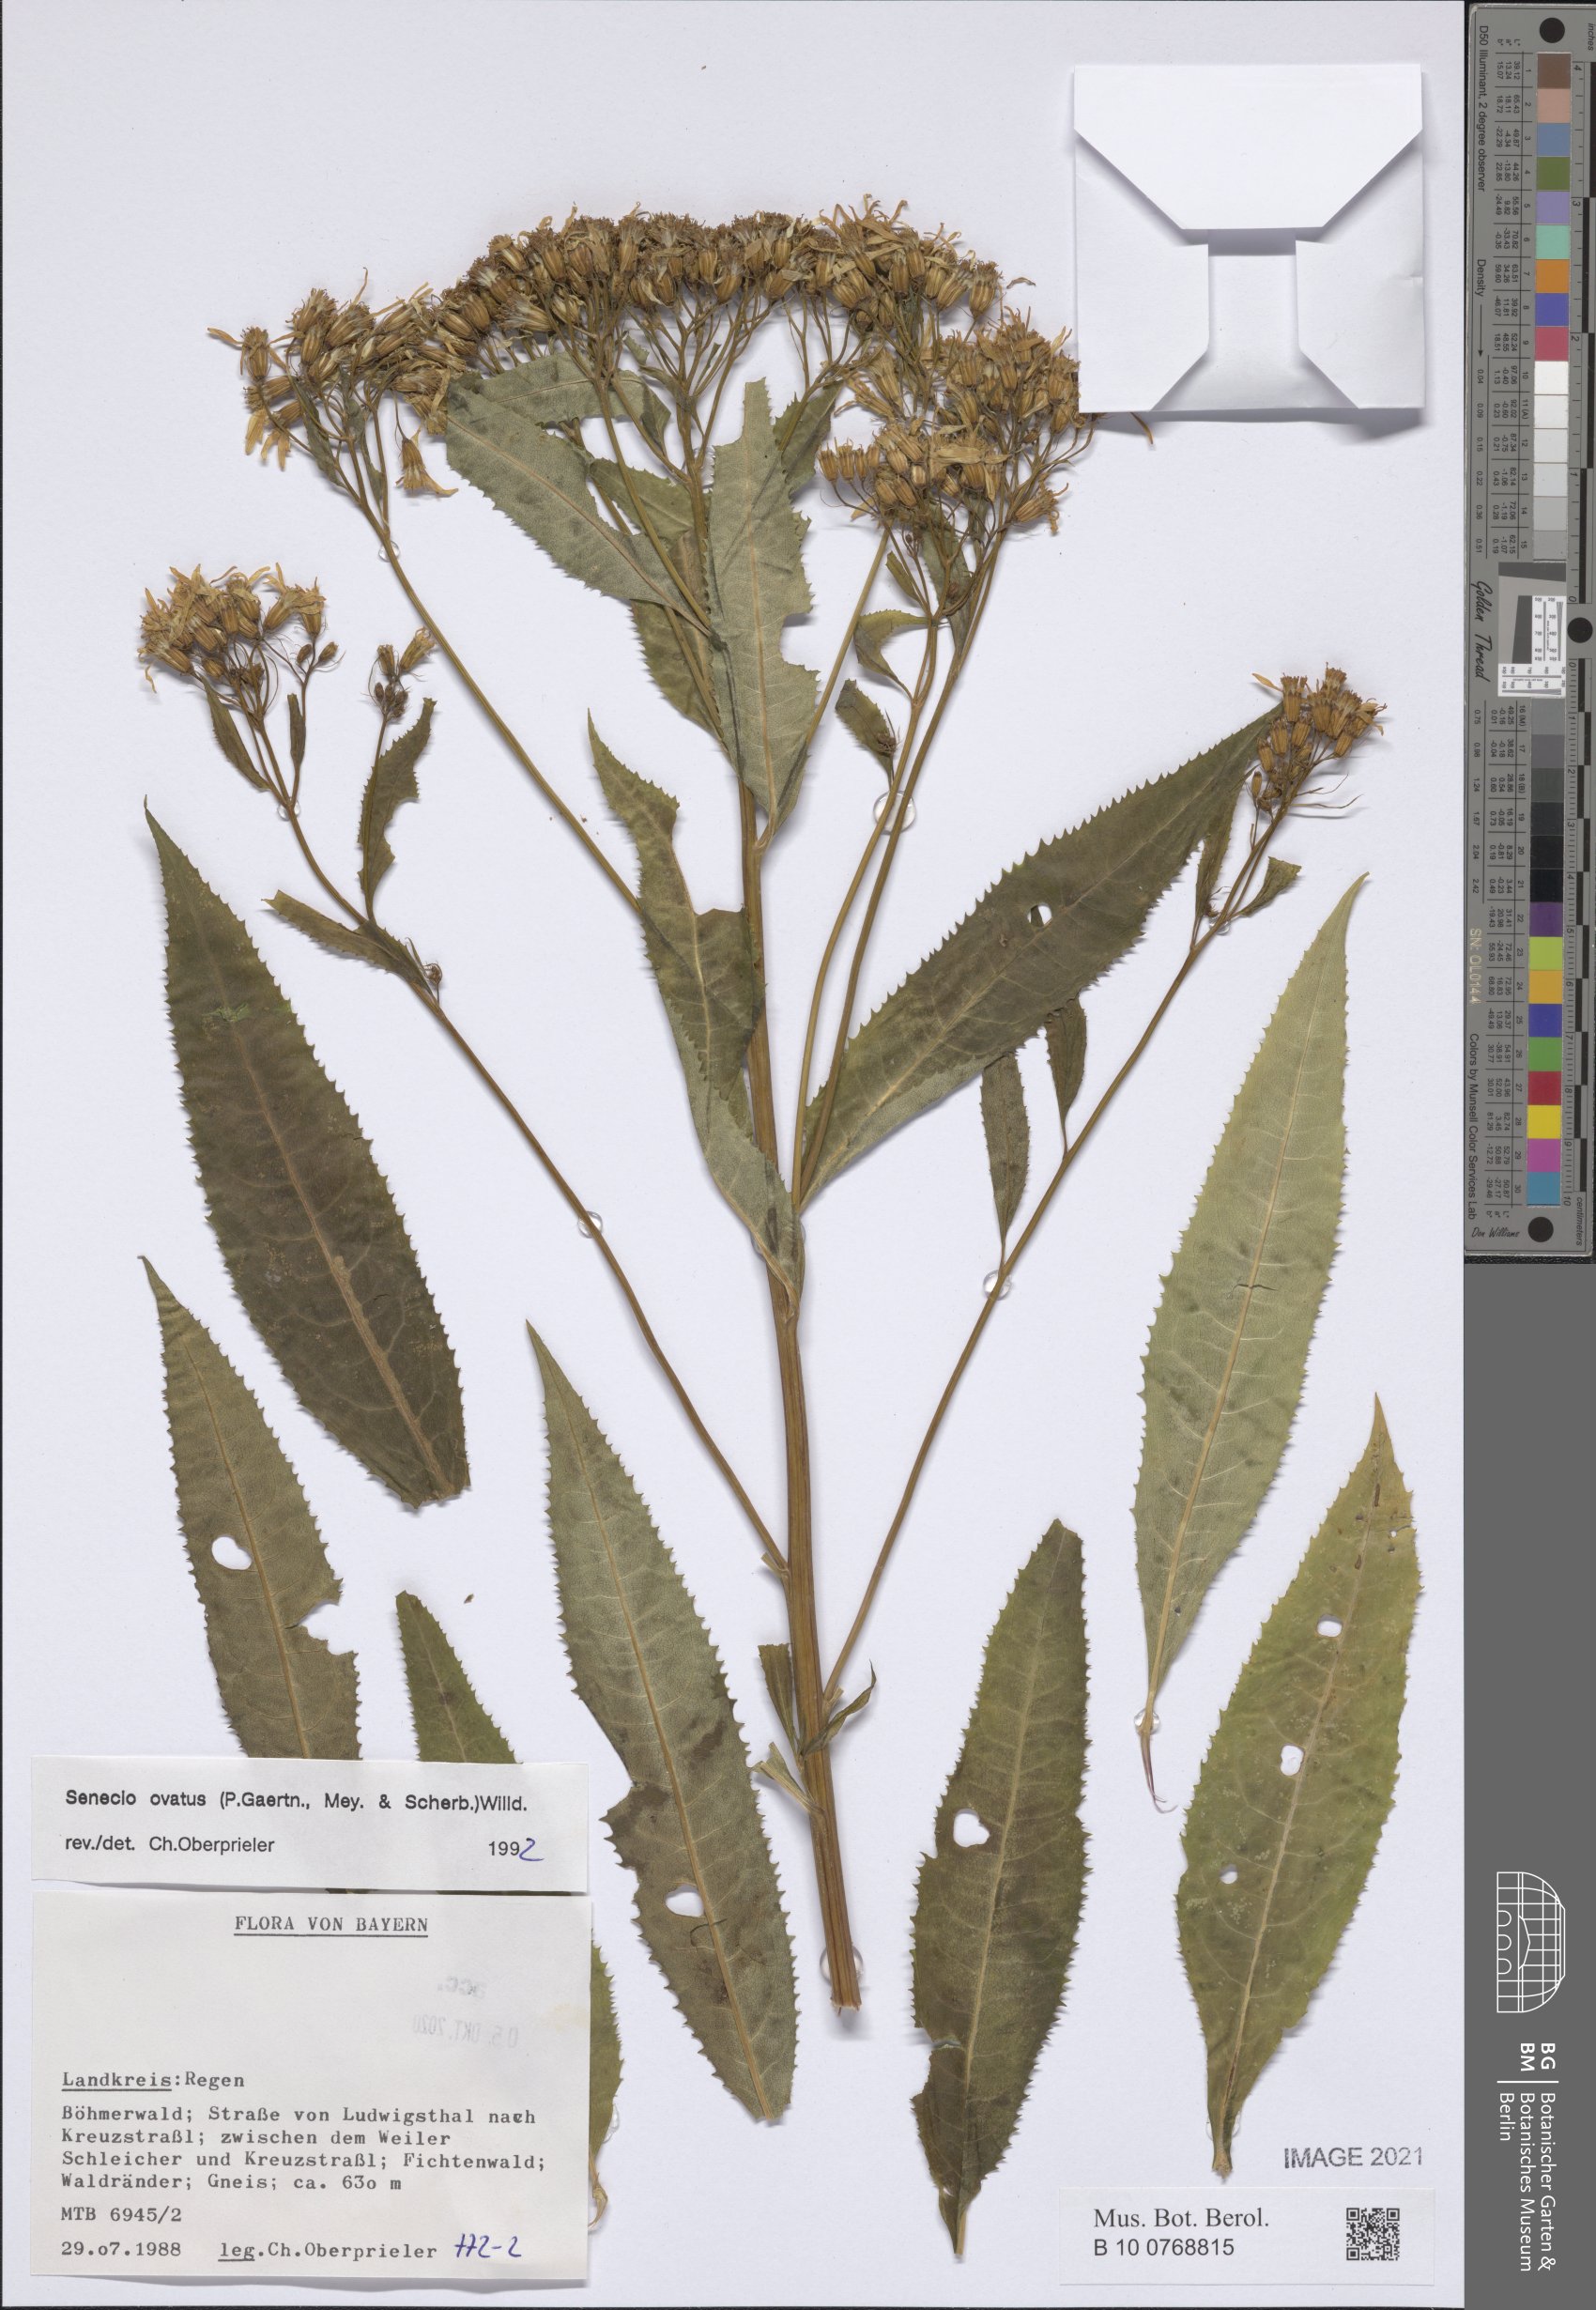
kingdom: Plantae
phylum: Tracheophyta
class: Magnoliopsida
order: Asterales
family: Asteraceae
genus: Senecio
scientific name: Senecio ovatus
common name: Wood ragwort
